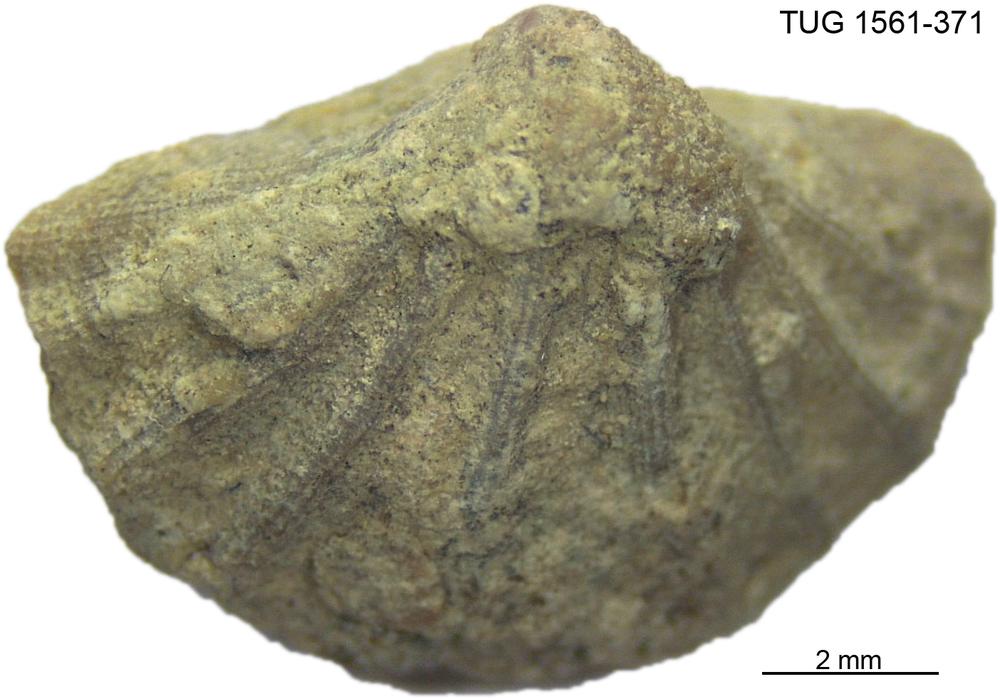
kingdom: Animalia
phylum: Arthropoda
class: Copepoda
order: Cyclopoida
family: Notodelphyidae
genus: Janhius
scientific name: Janhius Spirifer barrandi
